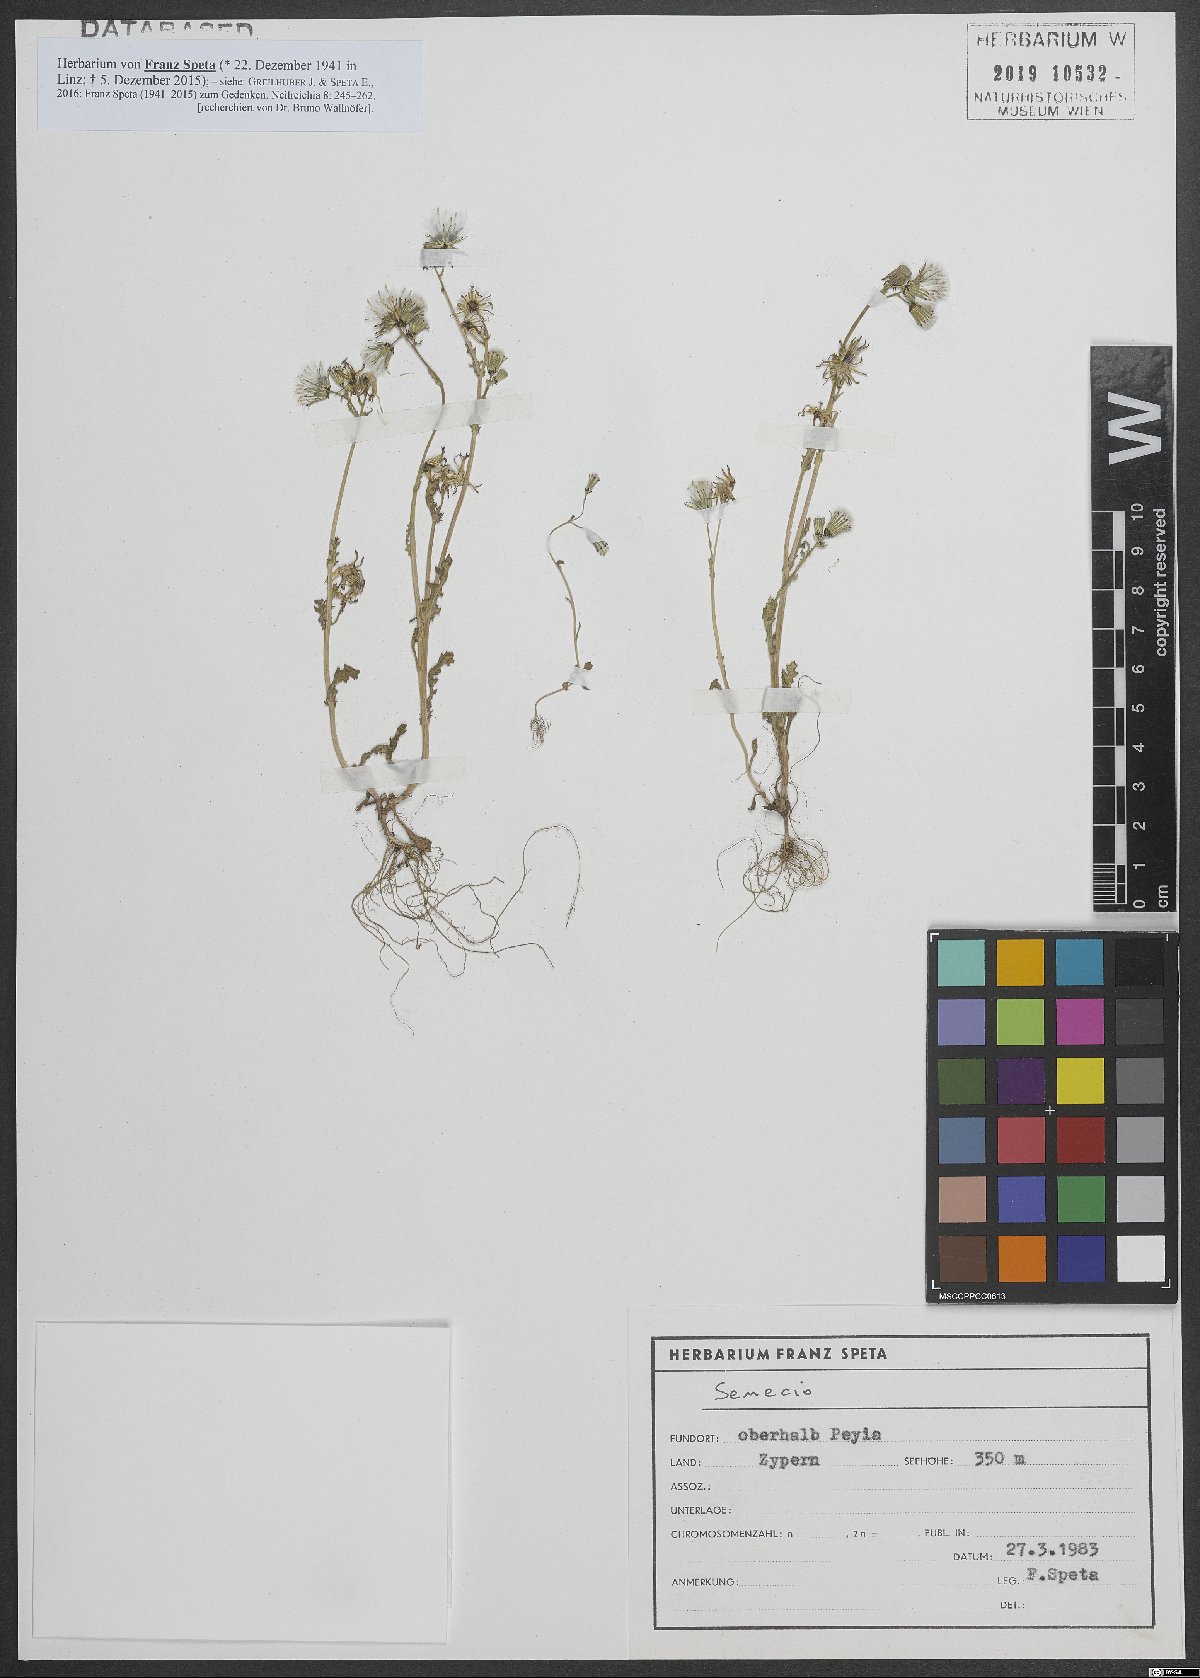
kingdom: Plantae
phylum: Tracheophyta
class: Magnoliopsida
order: Asterales
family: Asteraceae
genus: Senecio
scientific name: Senecio
